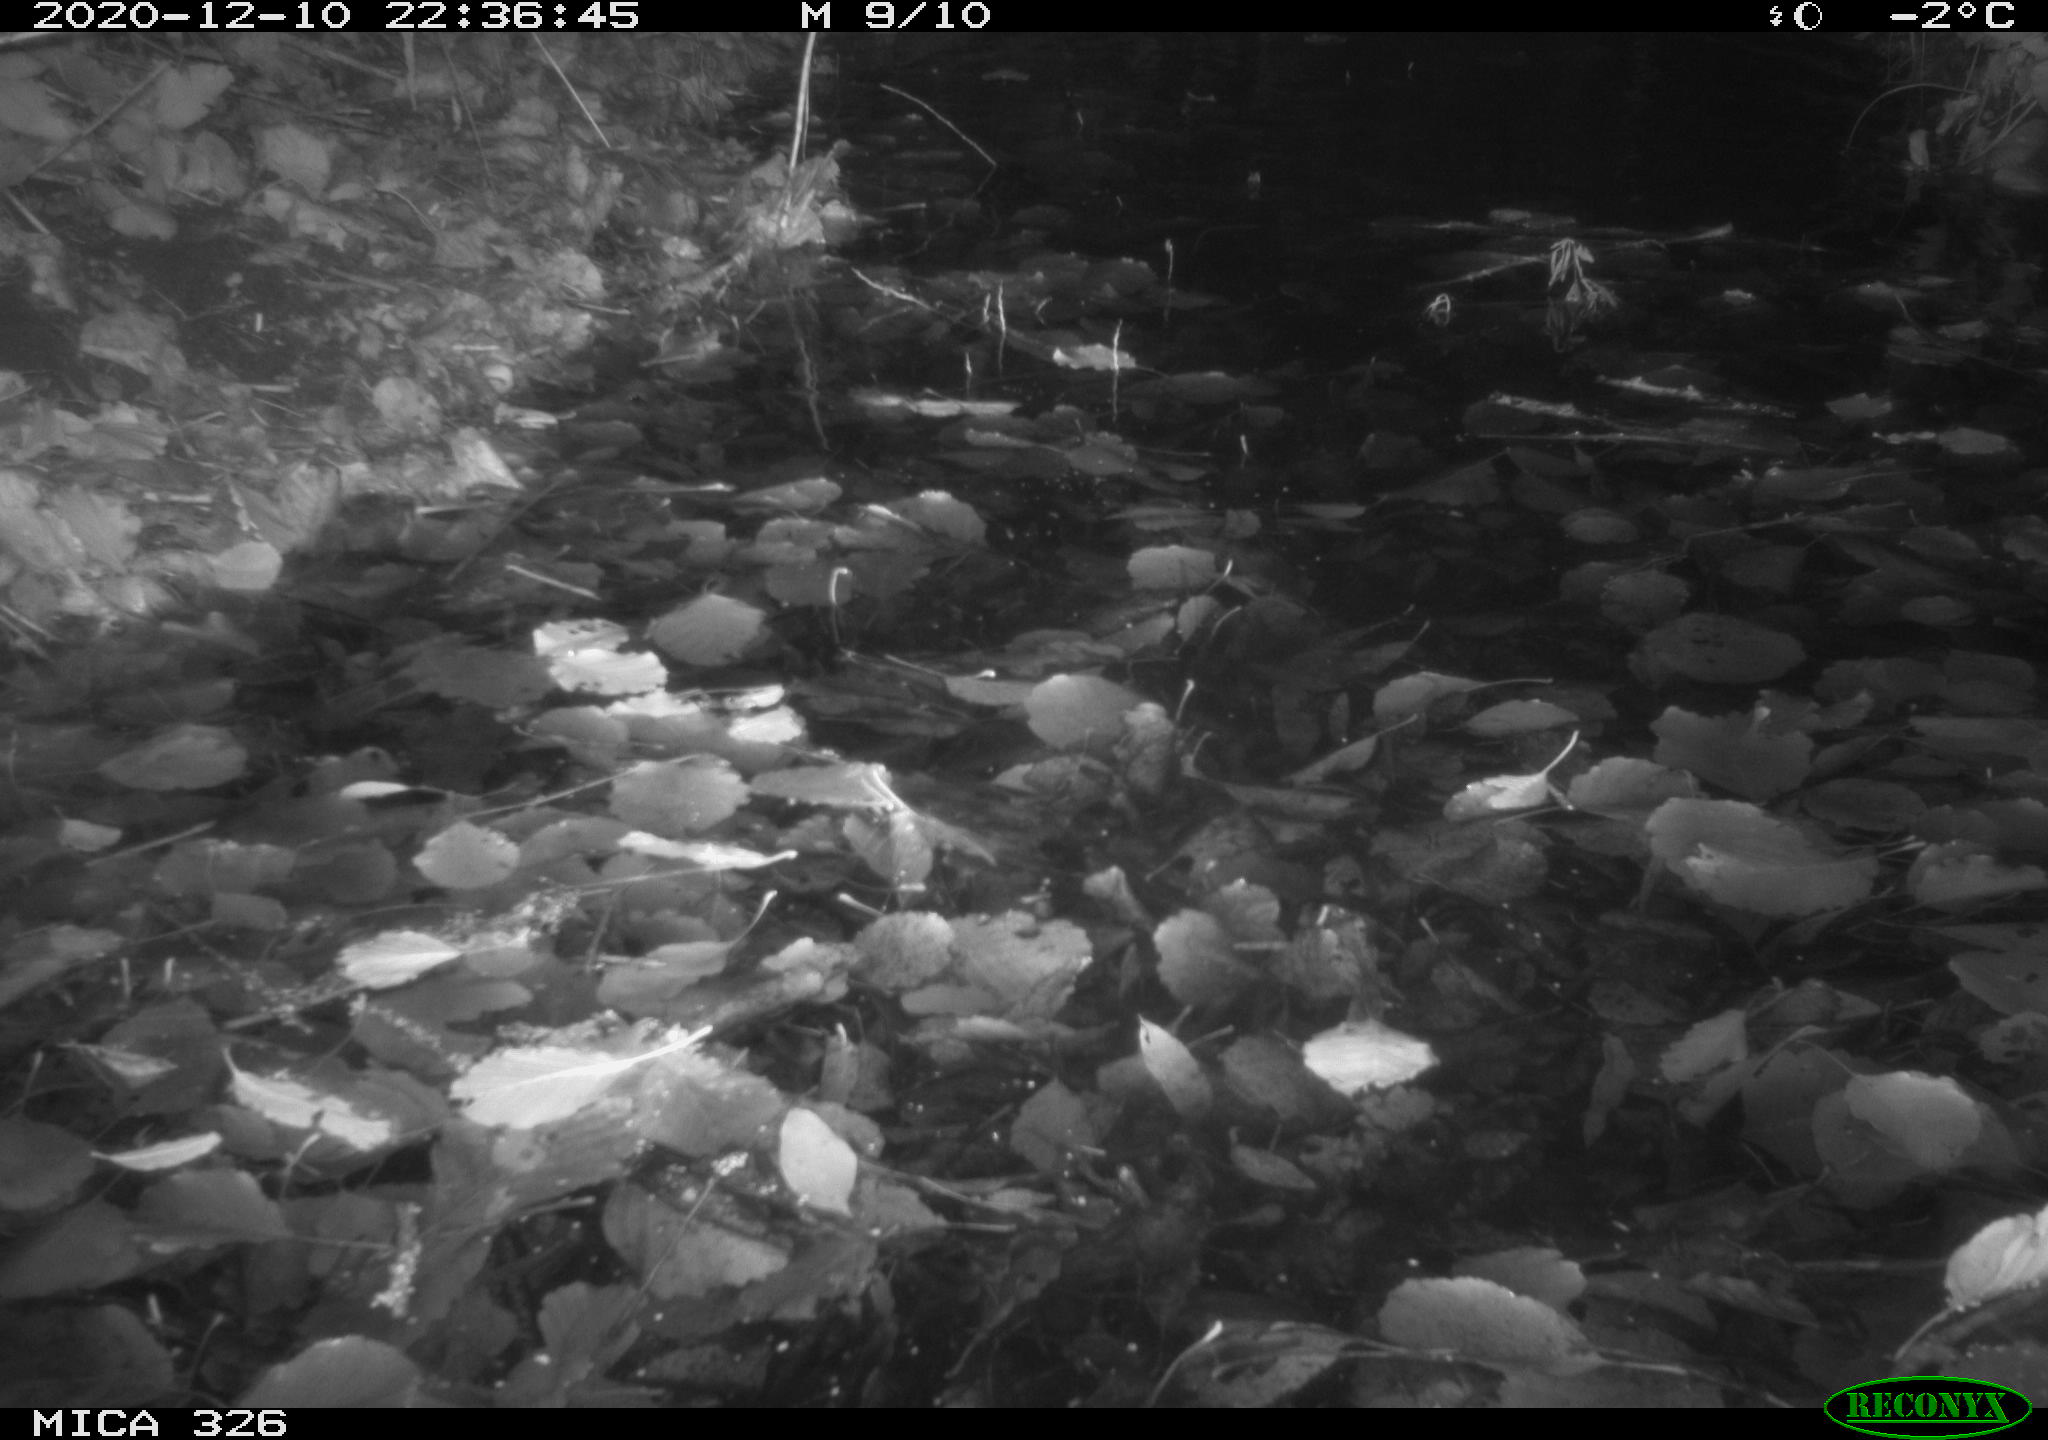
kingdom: Animalia
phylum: Chordata
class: Mammalia
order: Rodentia
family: Cricetidae
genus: Ondatra
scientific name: Ondatra zibethicus
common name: Muskrat
